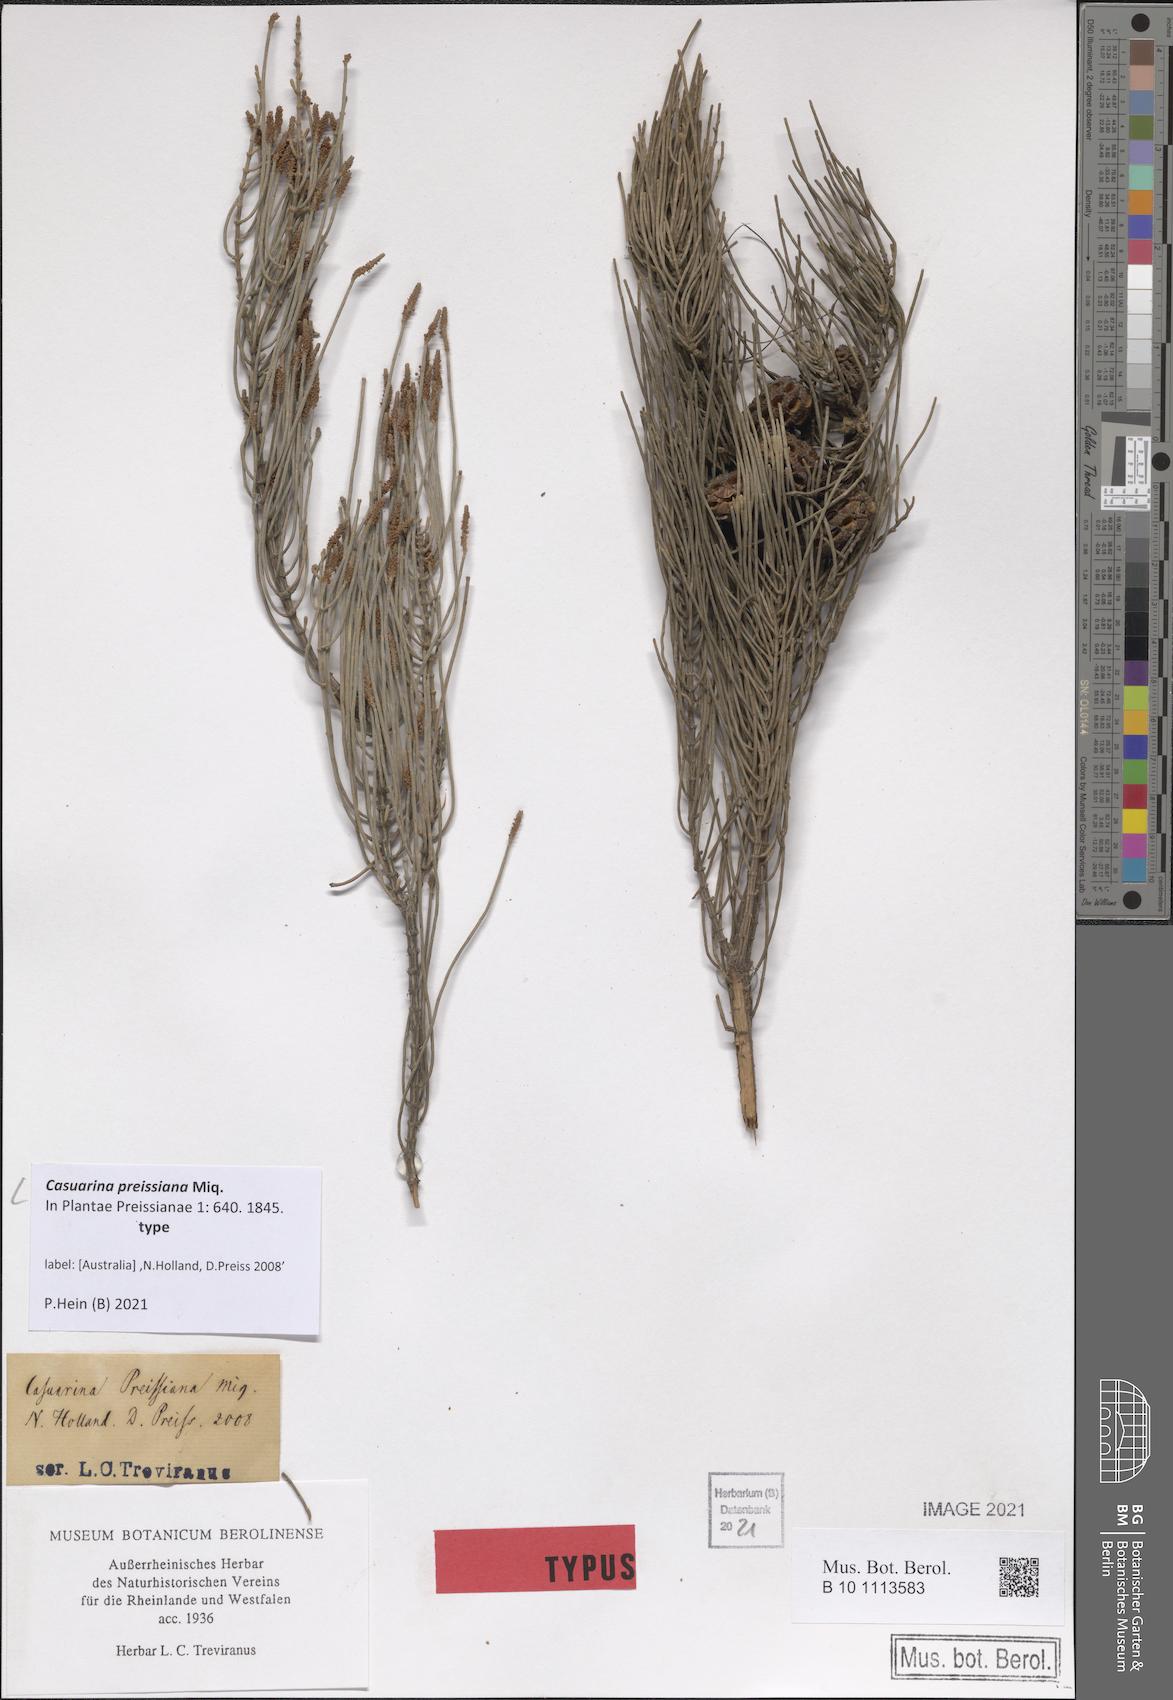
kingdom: Plantae
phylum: Tracheophyta
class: Magnoliopsida
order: Fagales
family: Casuarinaceae
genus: Allocasuarina
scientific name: Allocasuarina humilis
